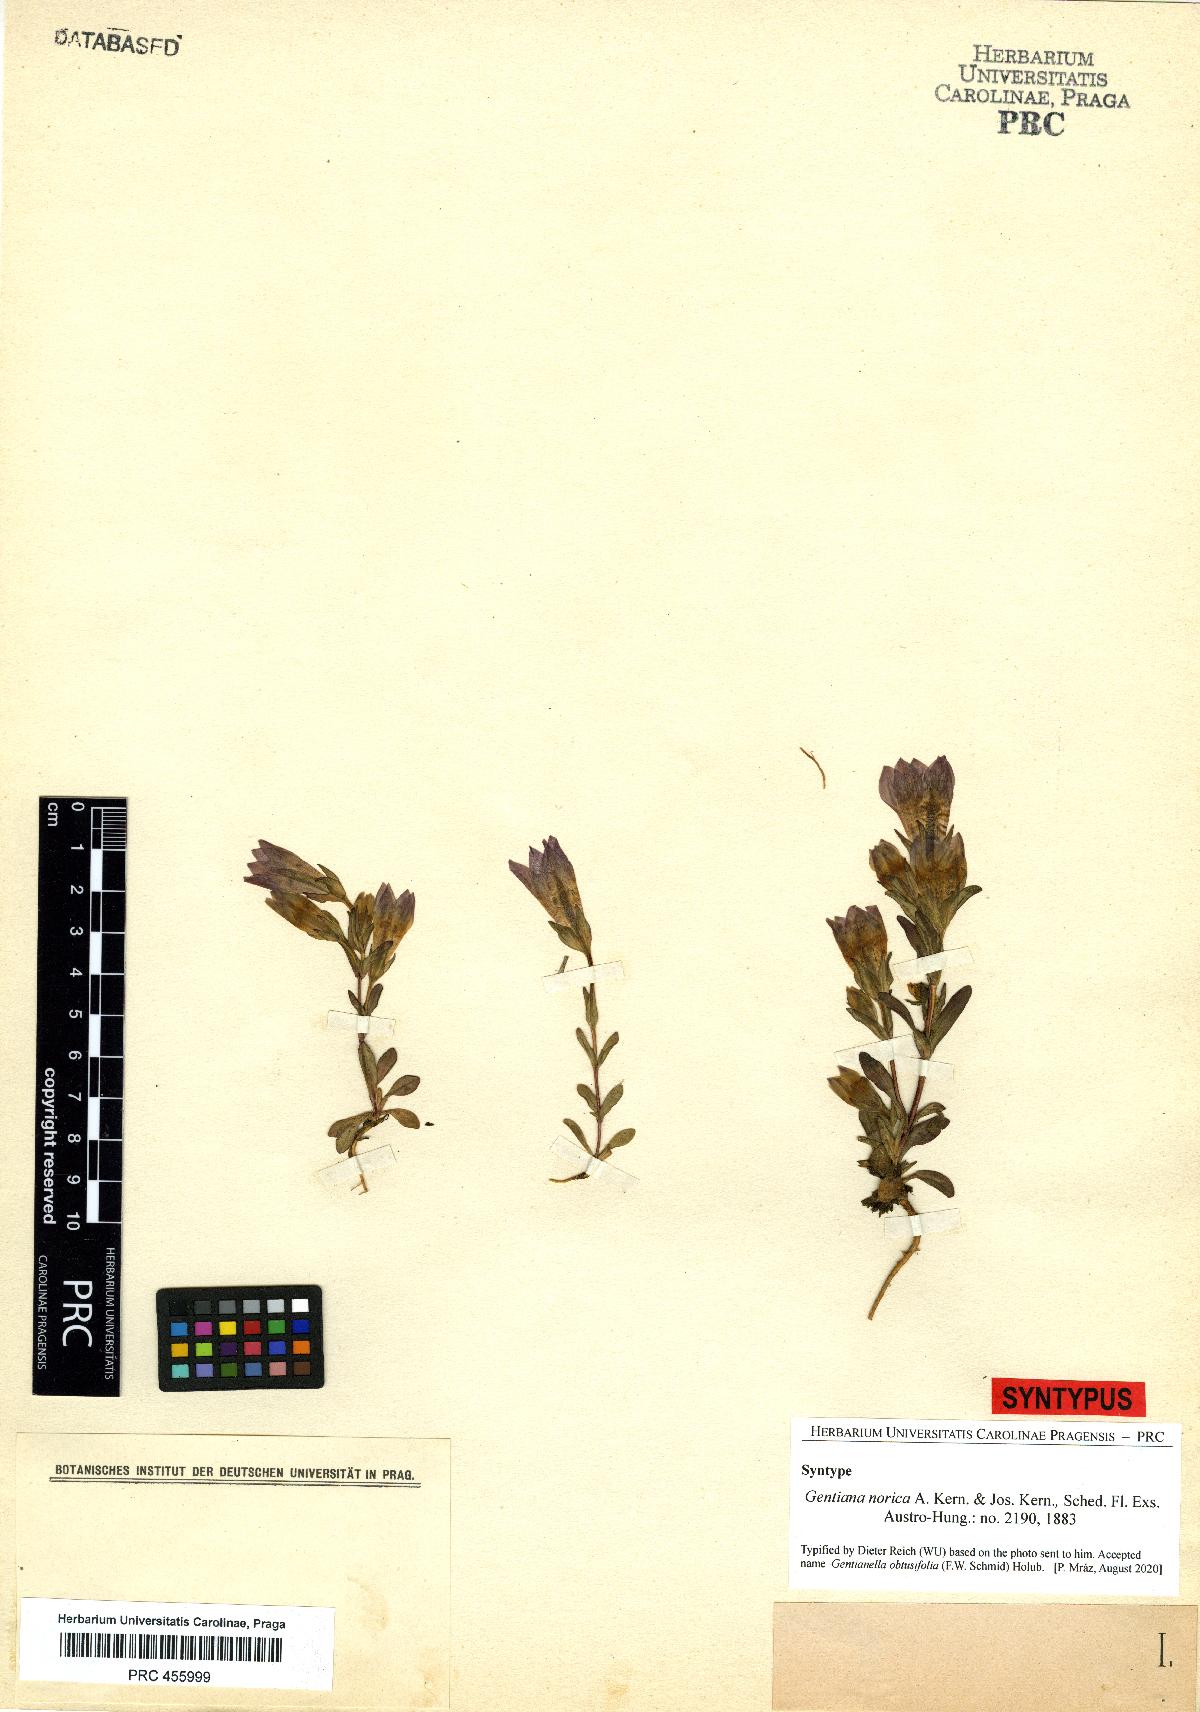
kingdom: Plantae
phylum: Tracheophyta
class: Magnoliopsida
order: Gentianales
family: Gentianaceae
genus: Gentianella
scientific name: Gentianella obtusifolia
